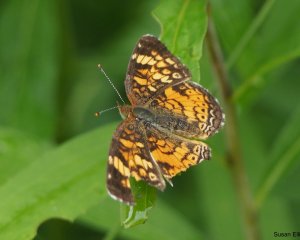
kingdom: Animalia
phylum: Arthropoda
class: Insecta
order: Lepidoptera
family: Nymphalidae
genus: Phyciodes
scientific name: Phyciodes
